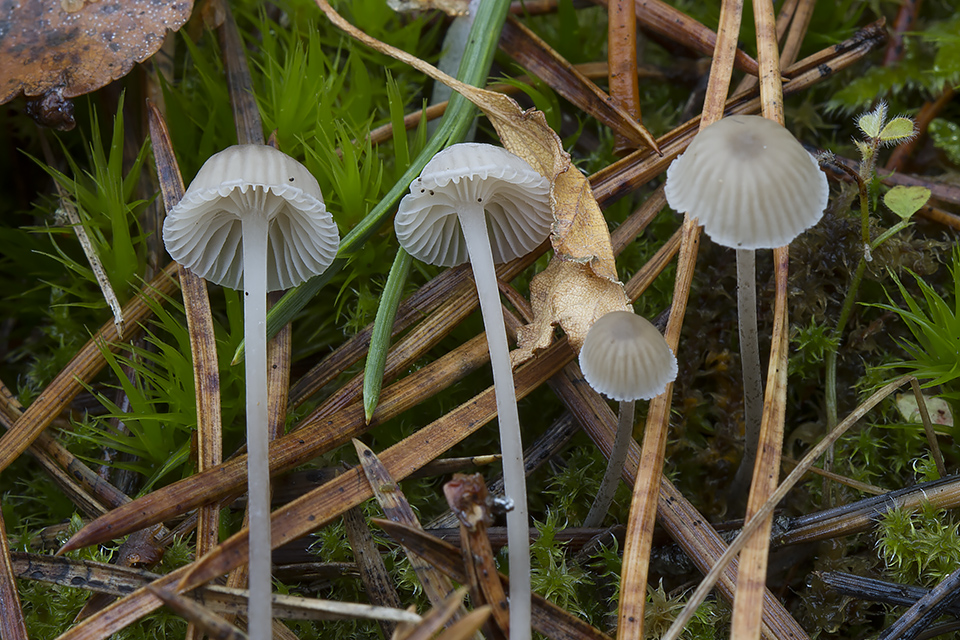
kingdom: Fungi
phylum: Basidiomycota
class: Agaricomycetes
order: Agaricales
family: Mycenaceae
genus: Mycena
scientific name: Mycena cinerella
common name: mel-huesvamp
